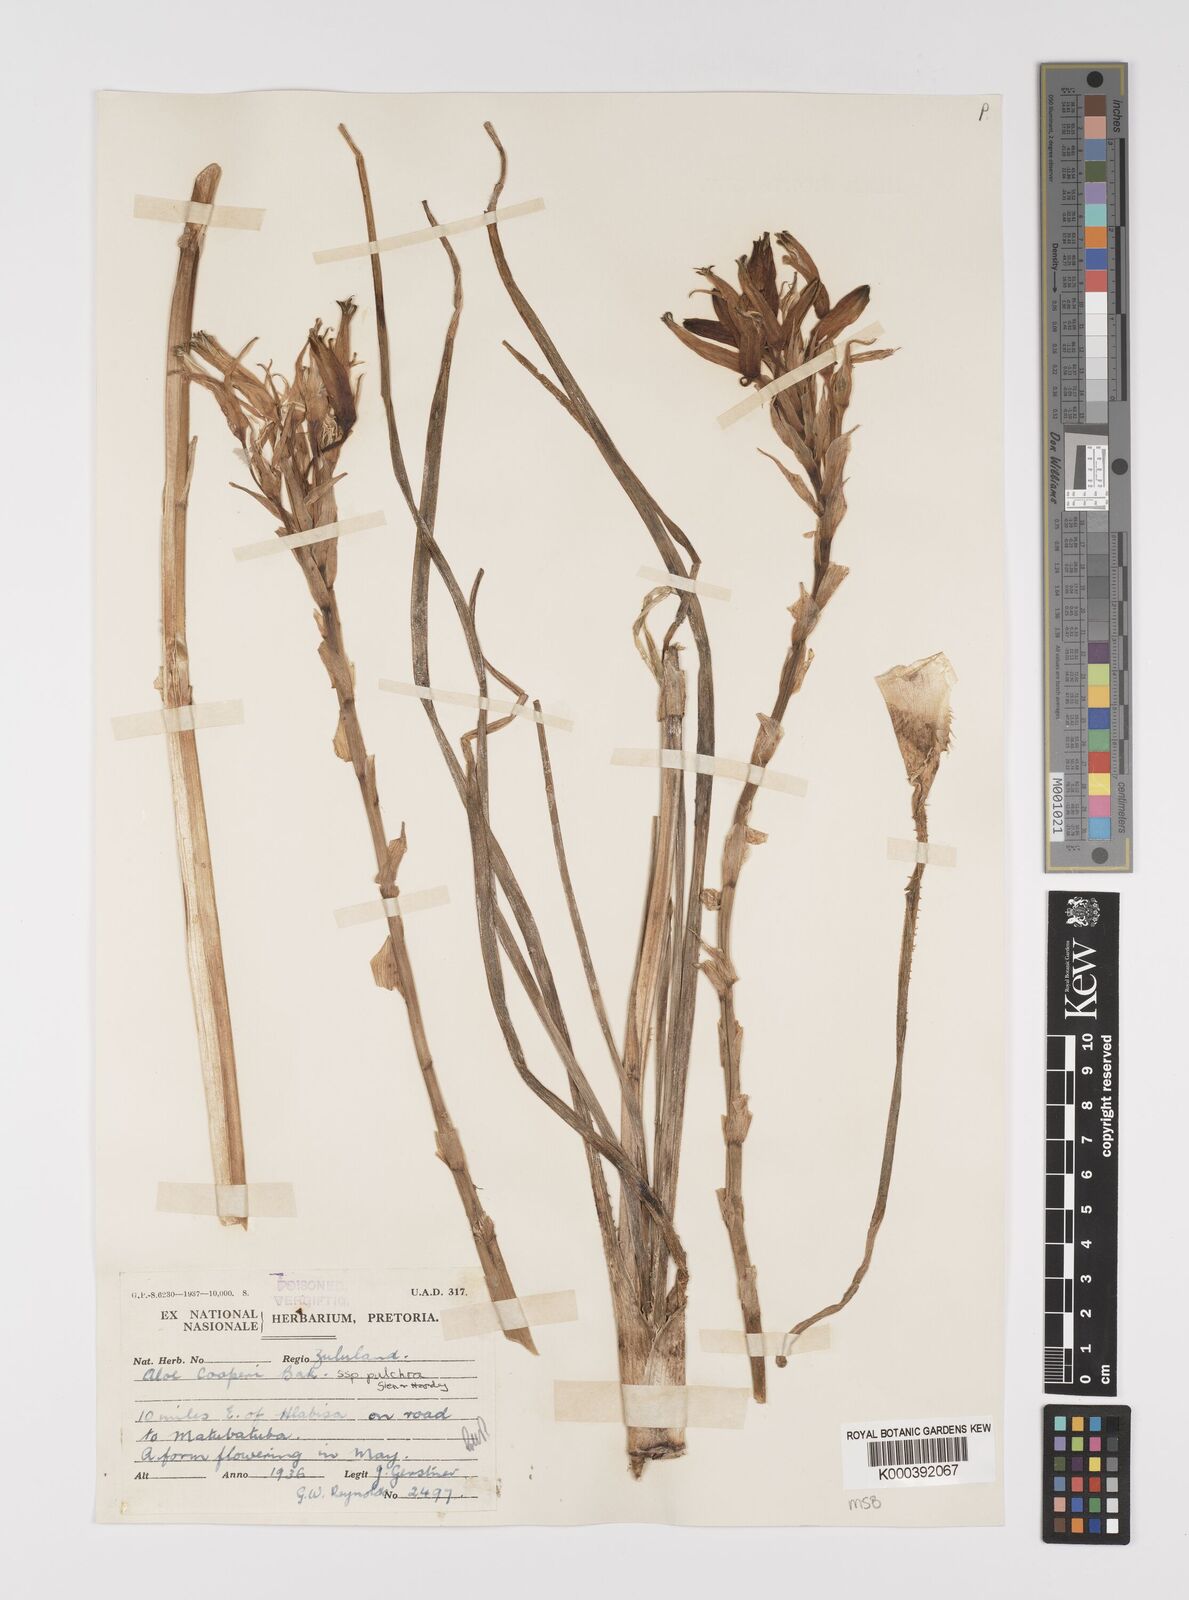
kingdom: Plantae
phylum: Tracheophyta
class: Liliopsida
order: Asparagales
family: Asphodelaceae
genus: Aloe
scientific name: Aloe sharoniae
